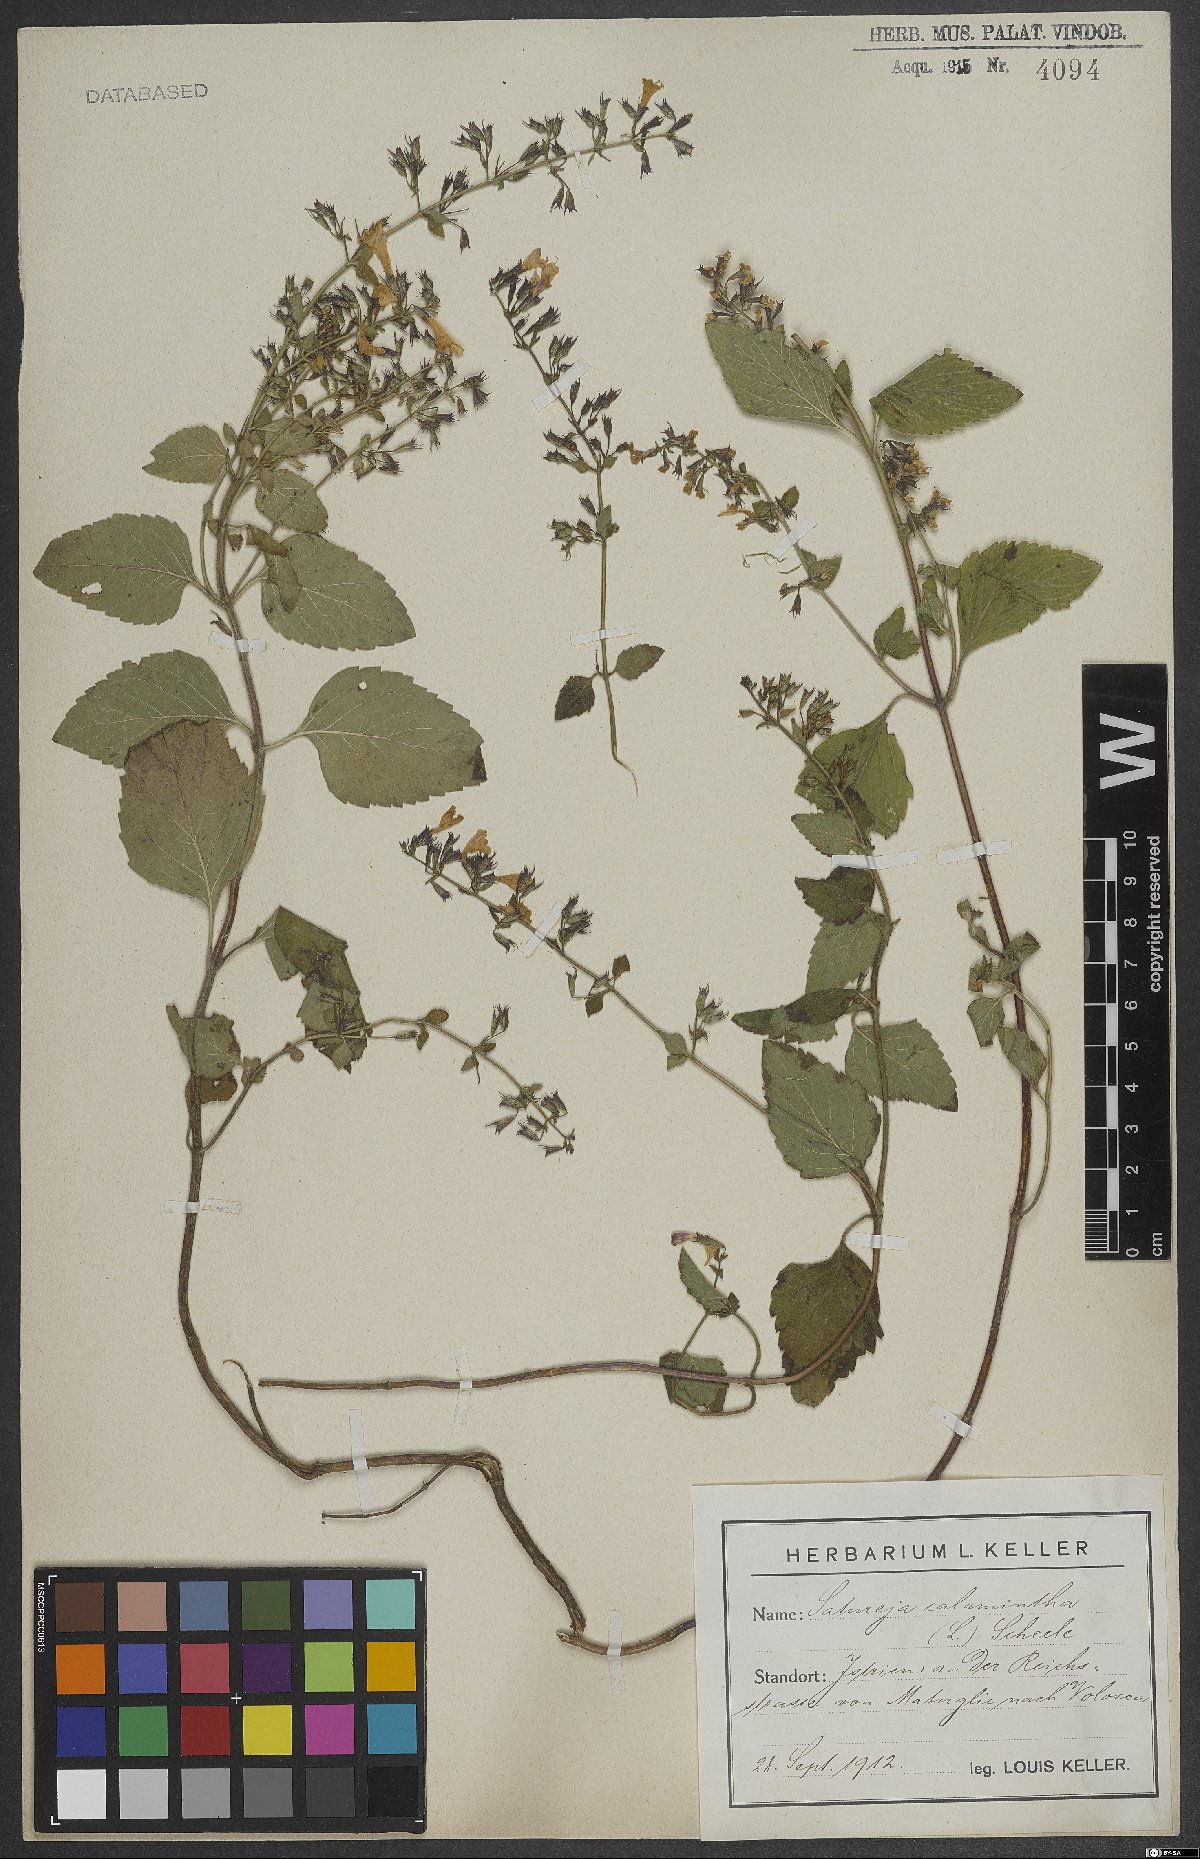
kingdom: Plantae
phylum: Tracheophyta
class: Magnoliopsida
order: Lamiales
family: Lamiaceae
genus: Clinopodium
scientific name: Clinopodium nepeta
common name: Lesser calamint
